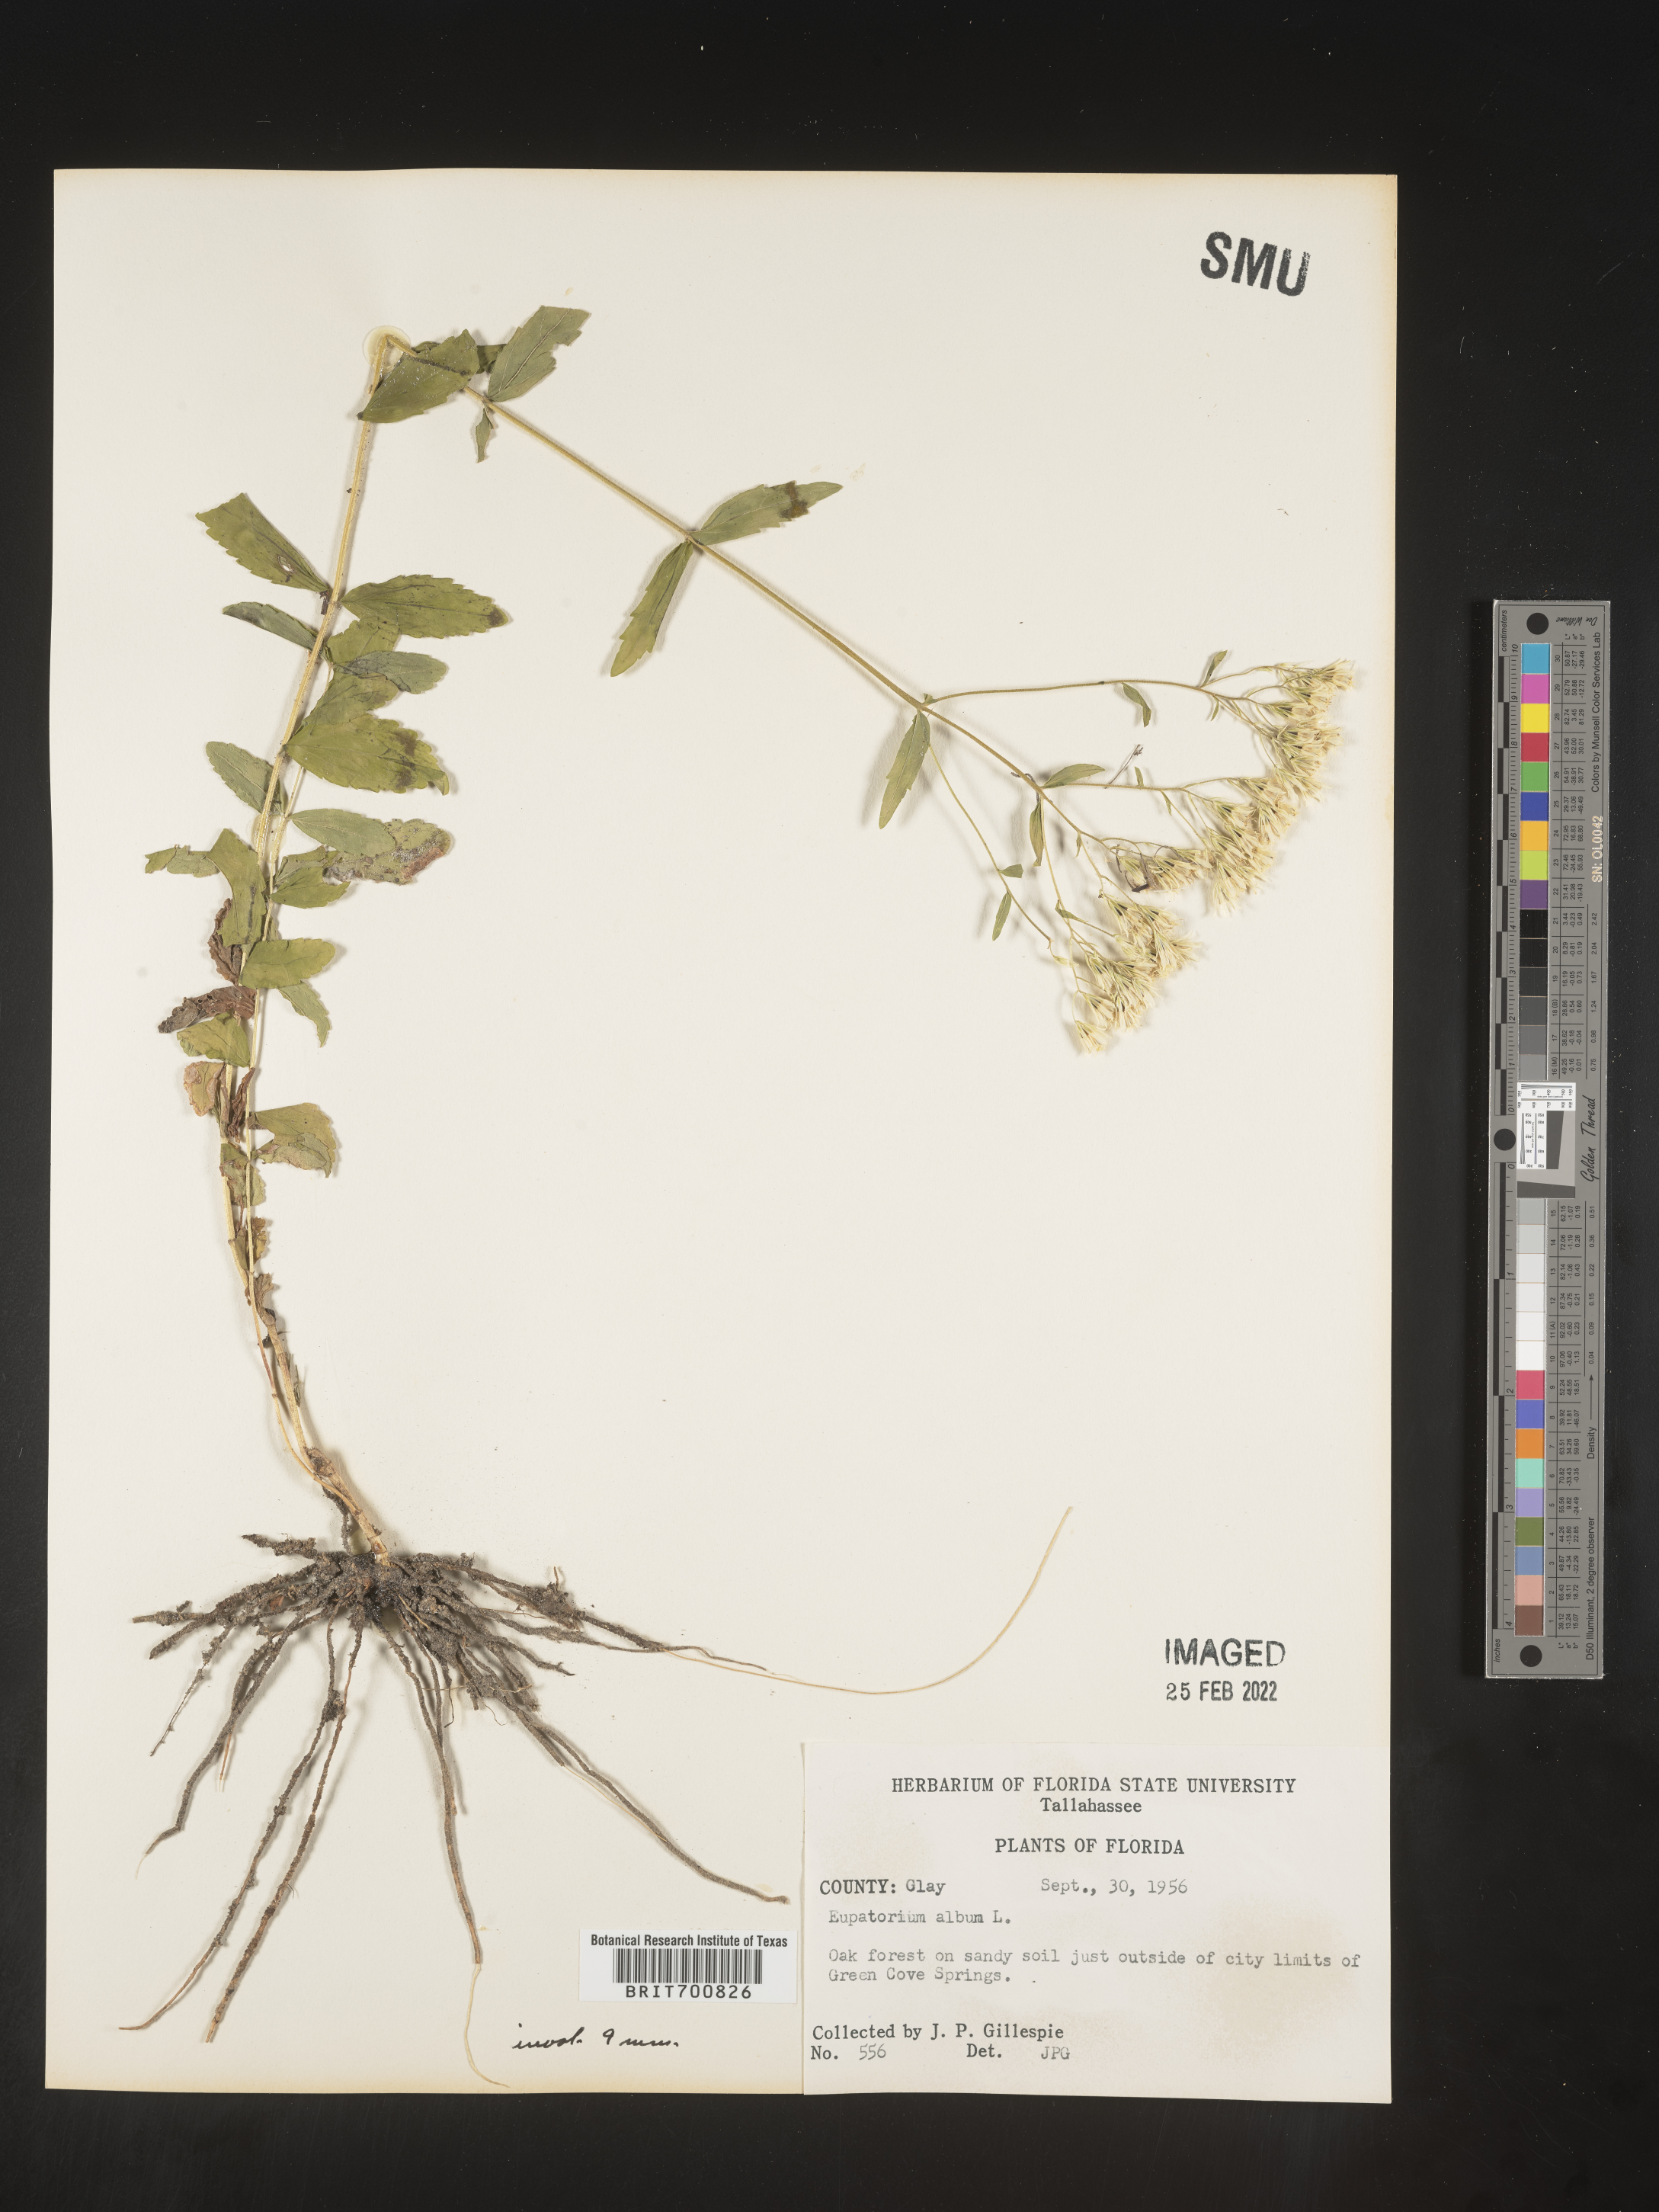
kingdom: Plantae
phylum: Tracheophyta
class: Magnoliopsida
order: Asterales
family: Asteraceae
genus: Eupatorium
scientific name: Eupatorium album
